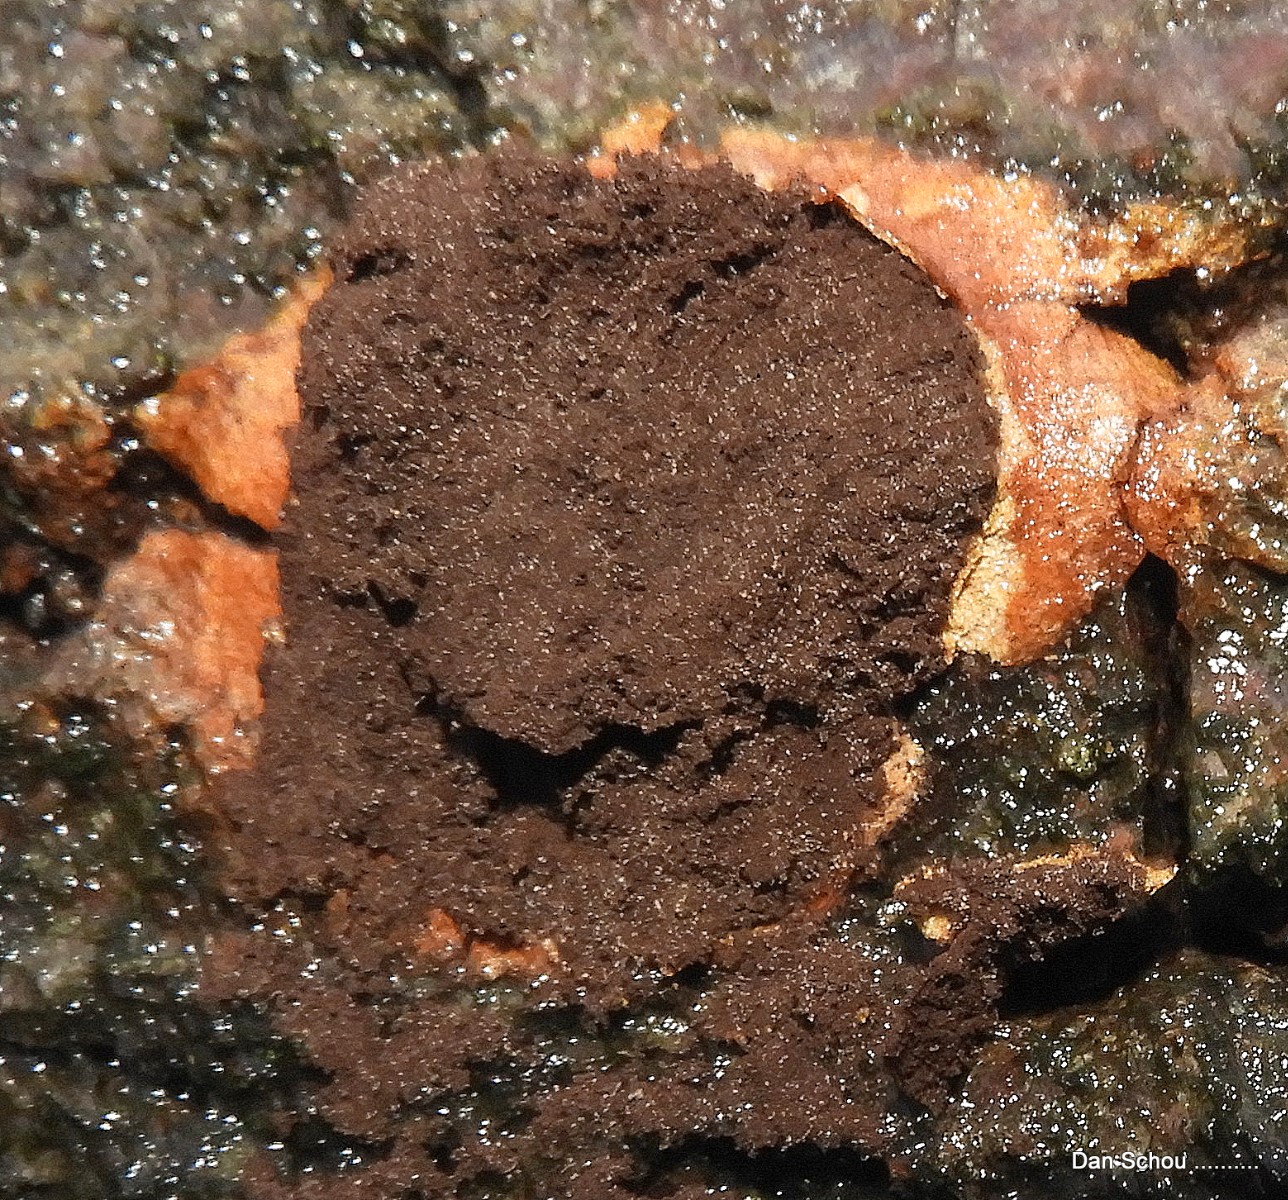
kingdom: Protozoa
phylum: Mycetozoa
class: Myxomycetes
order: Physarales
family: Physaraceae
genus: Fuligo
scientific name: Fuligo leviderma
